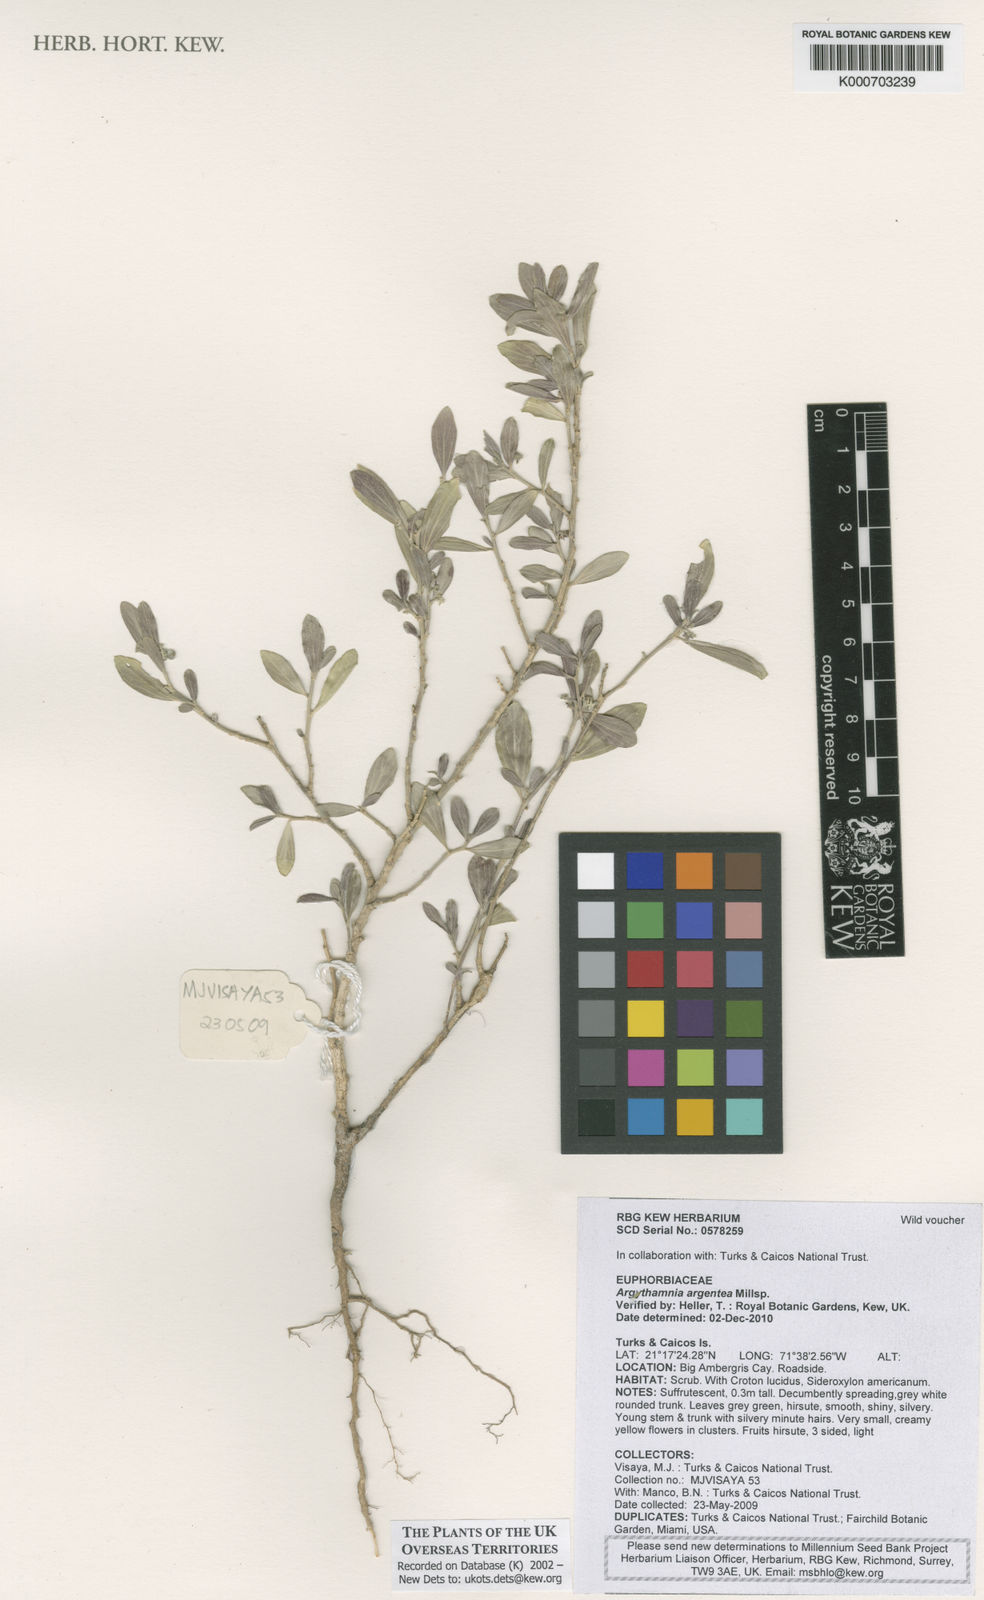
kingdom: Plantae
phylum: Tracheophyta
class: Magnoliopsida
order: Malpighiales
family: Euphorbiaceae
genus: Argythamnia
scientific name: Argythamnia argentea
